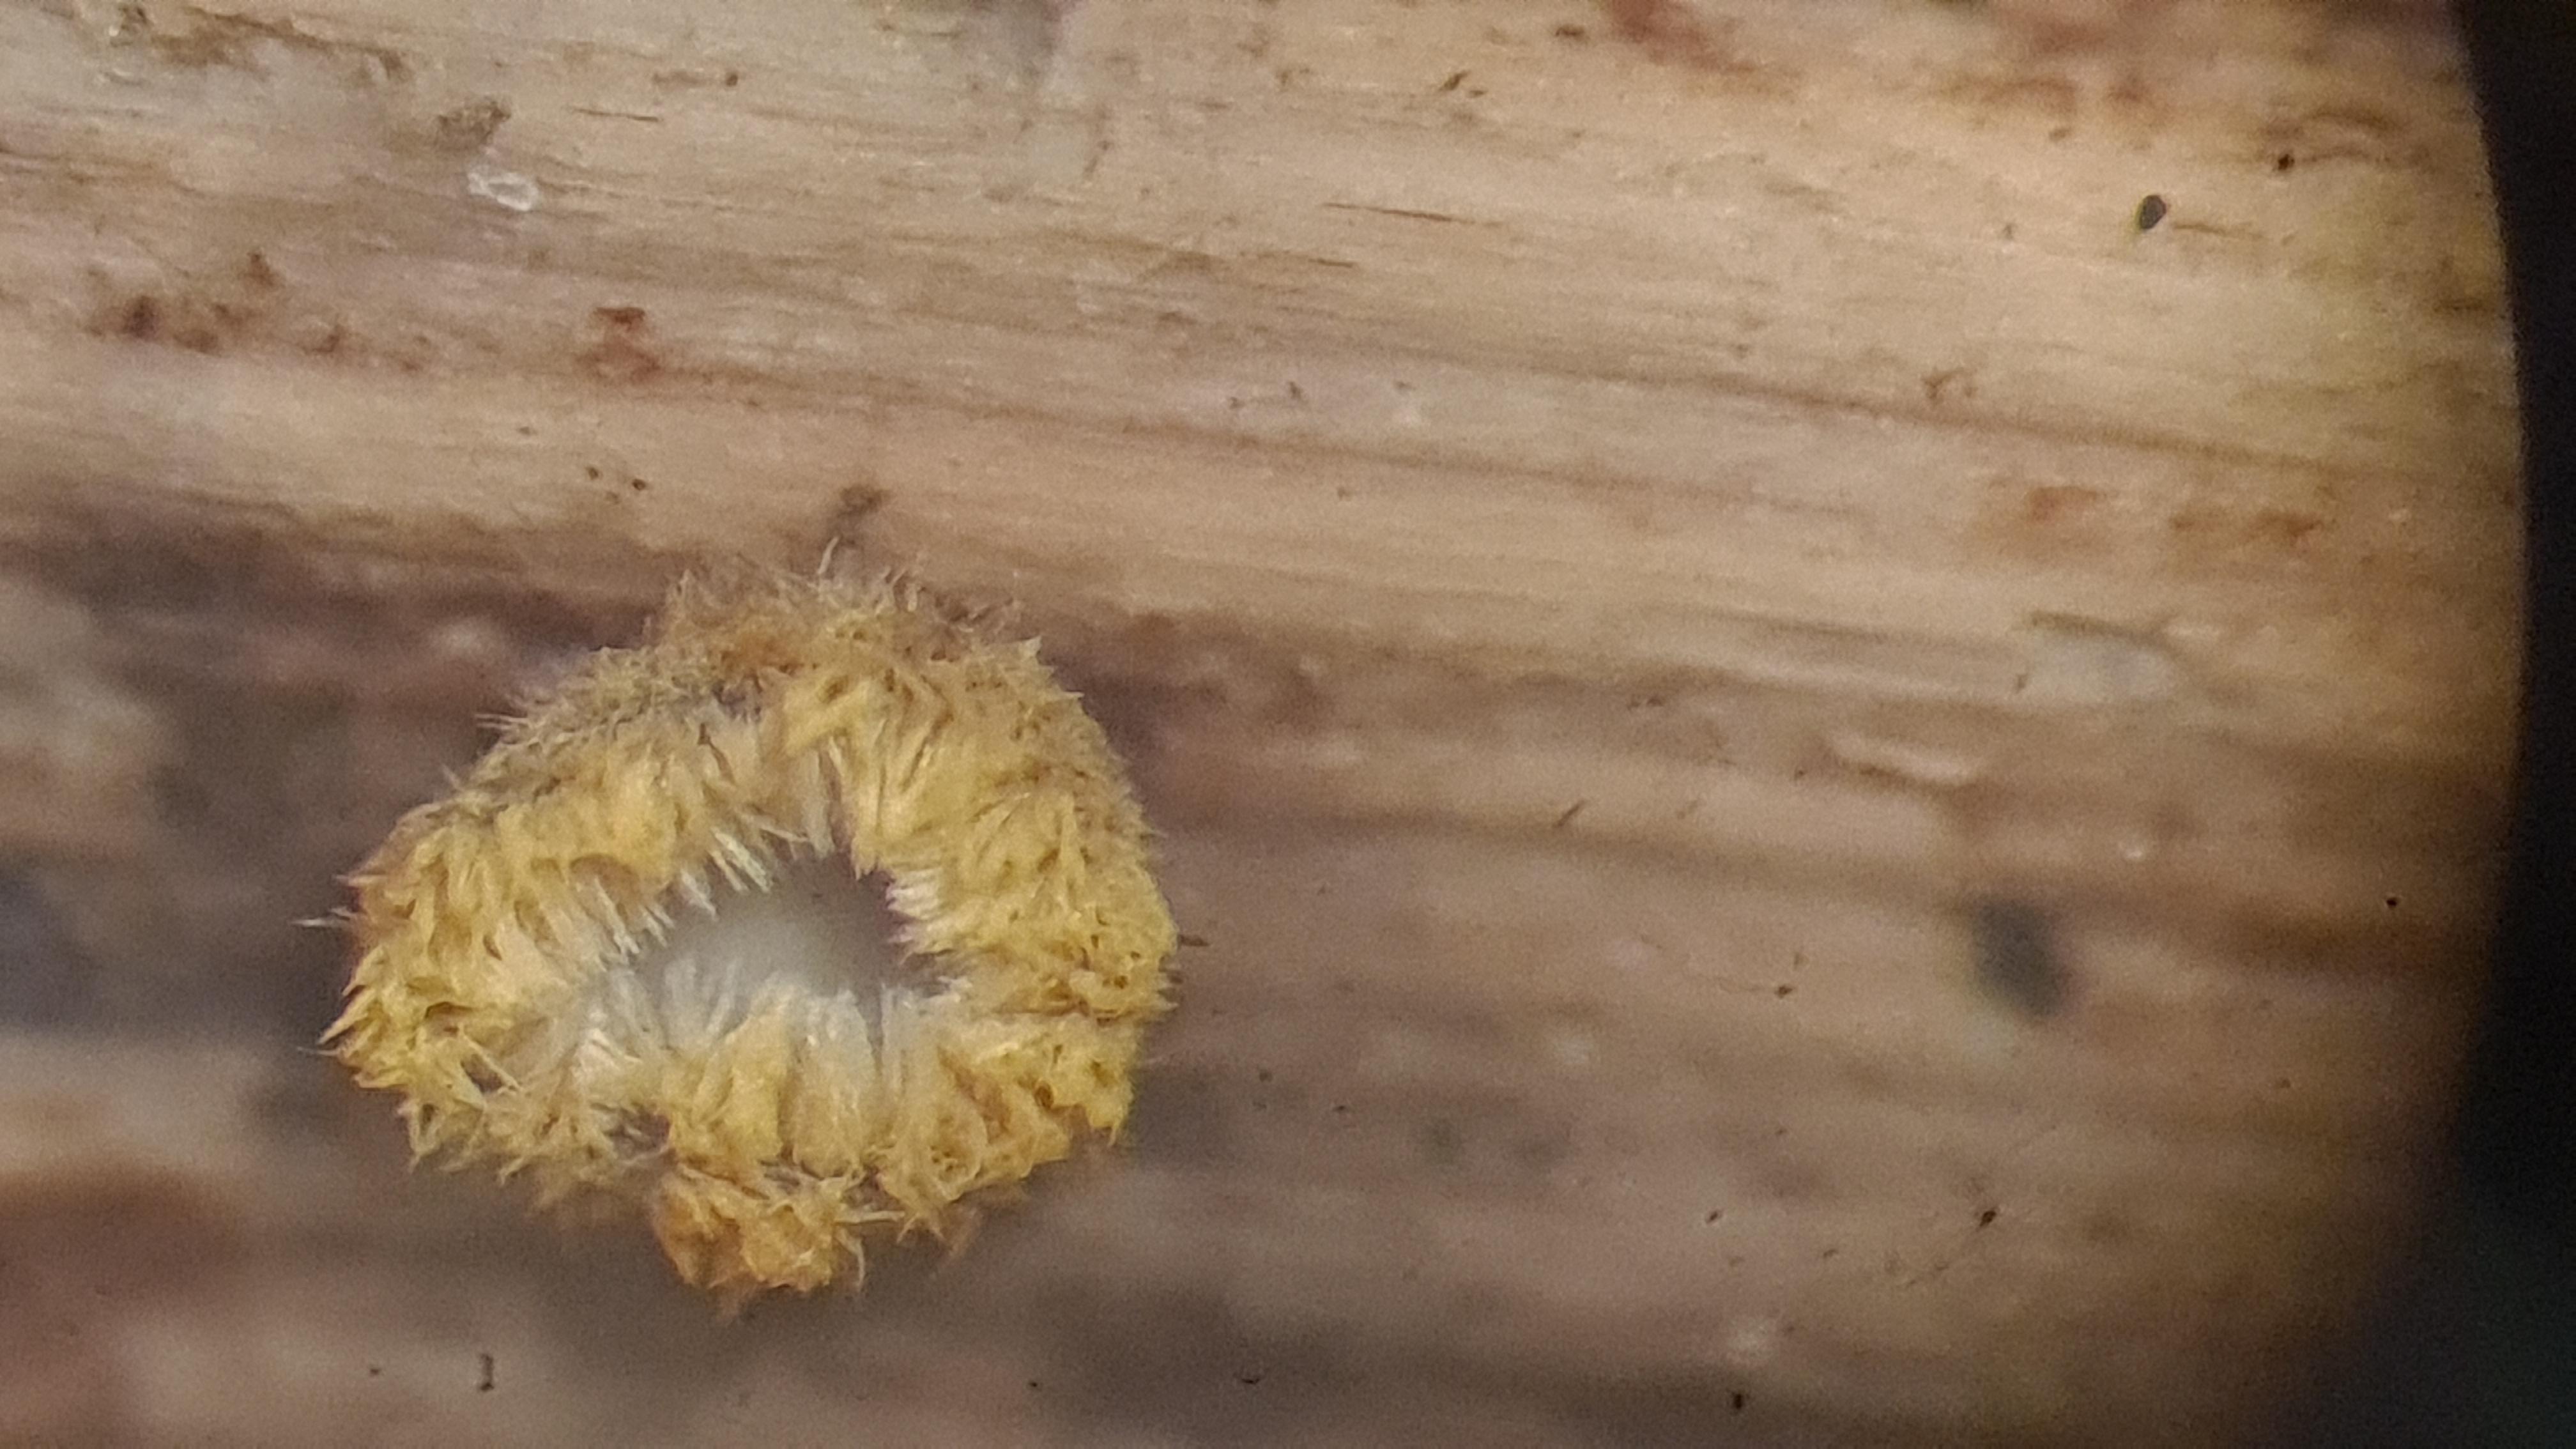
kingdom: Fungi
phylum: Ascomycota
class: Leotiomycetes
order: Helotiales
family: Lachnaceae
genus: Trichopeziza
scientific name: Trichopeziza
